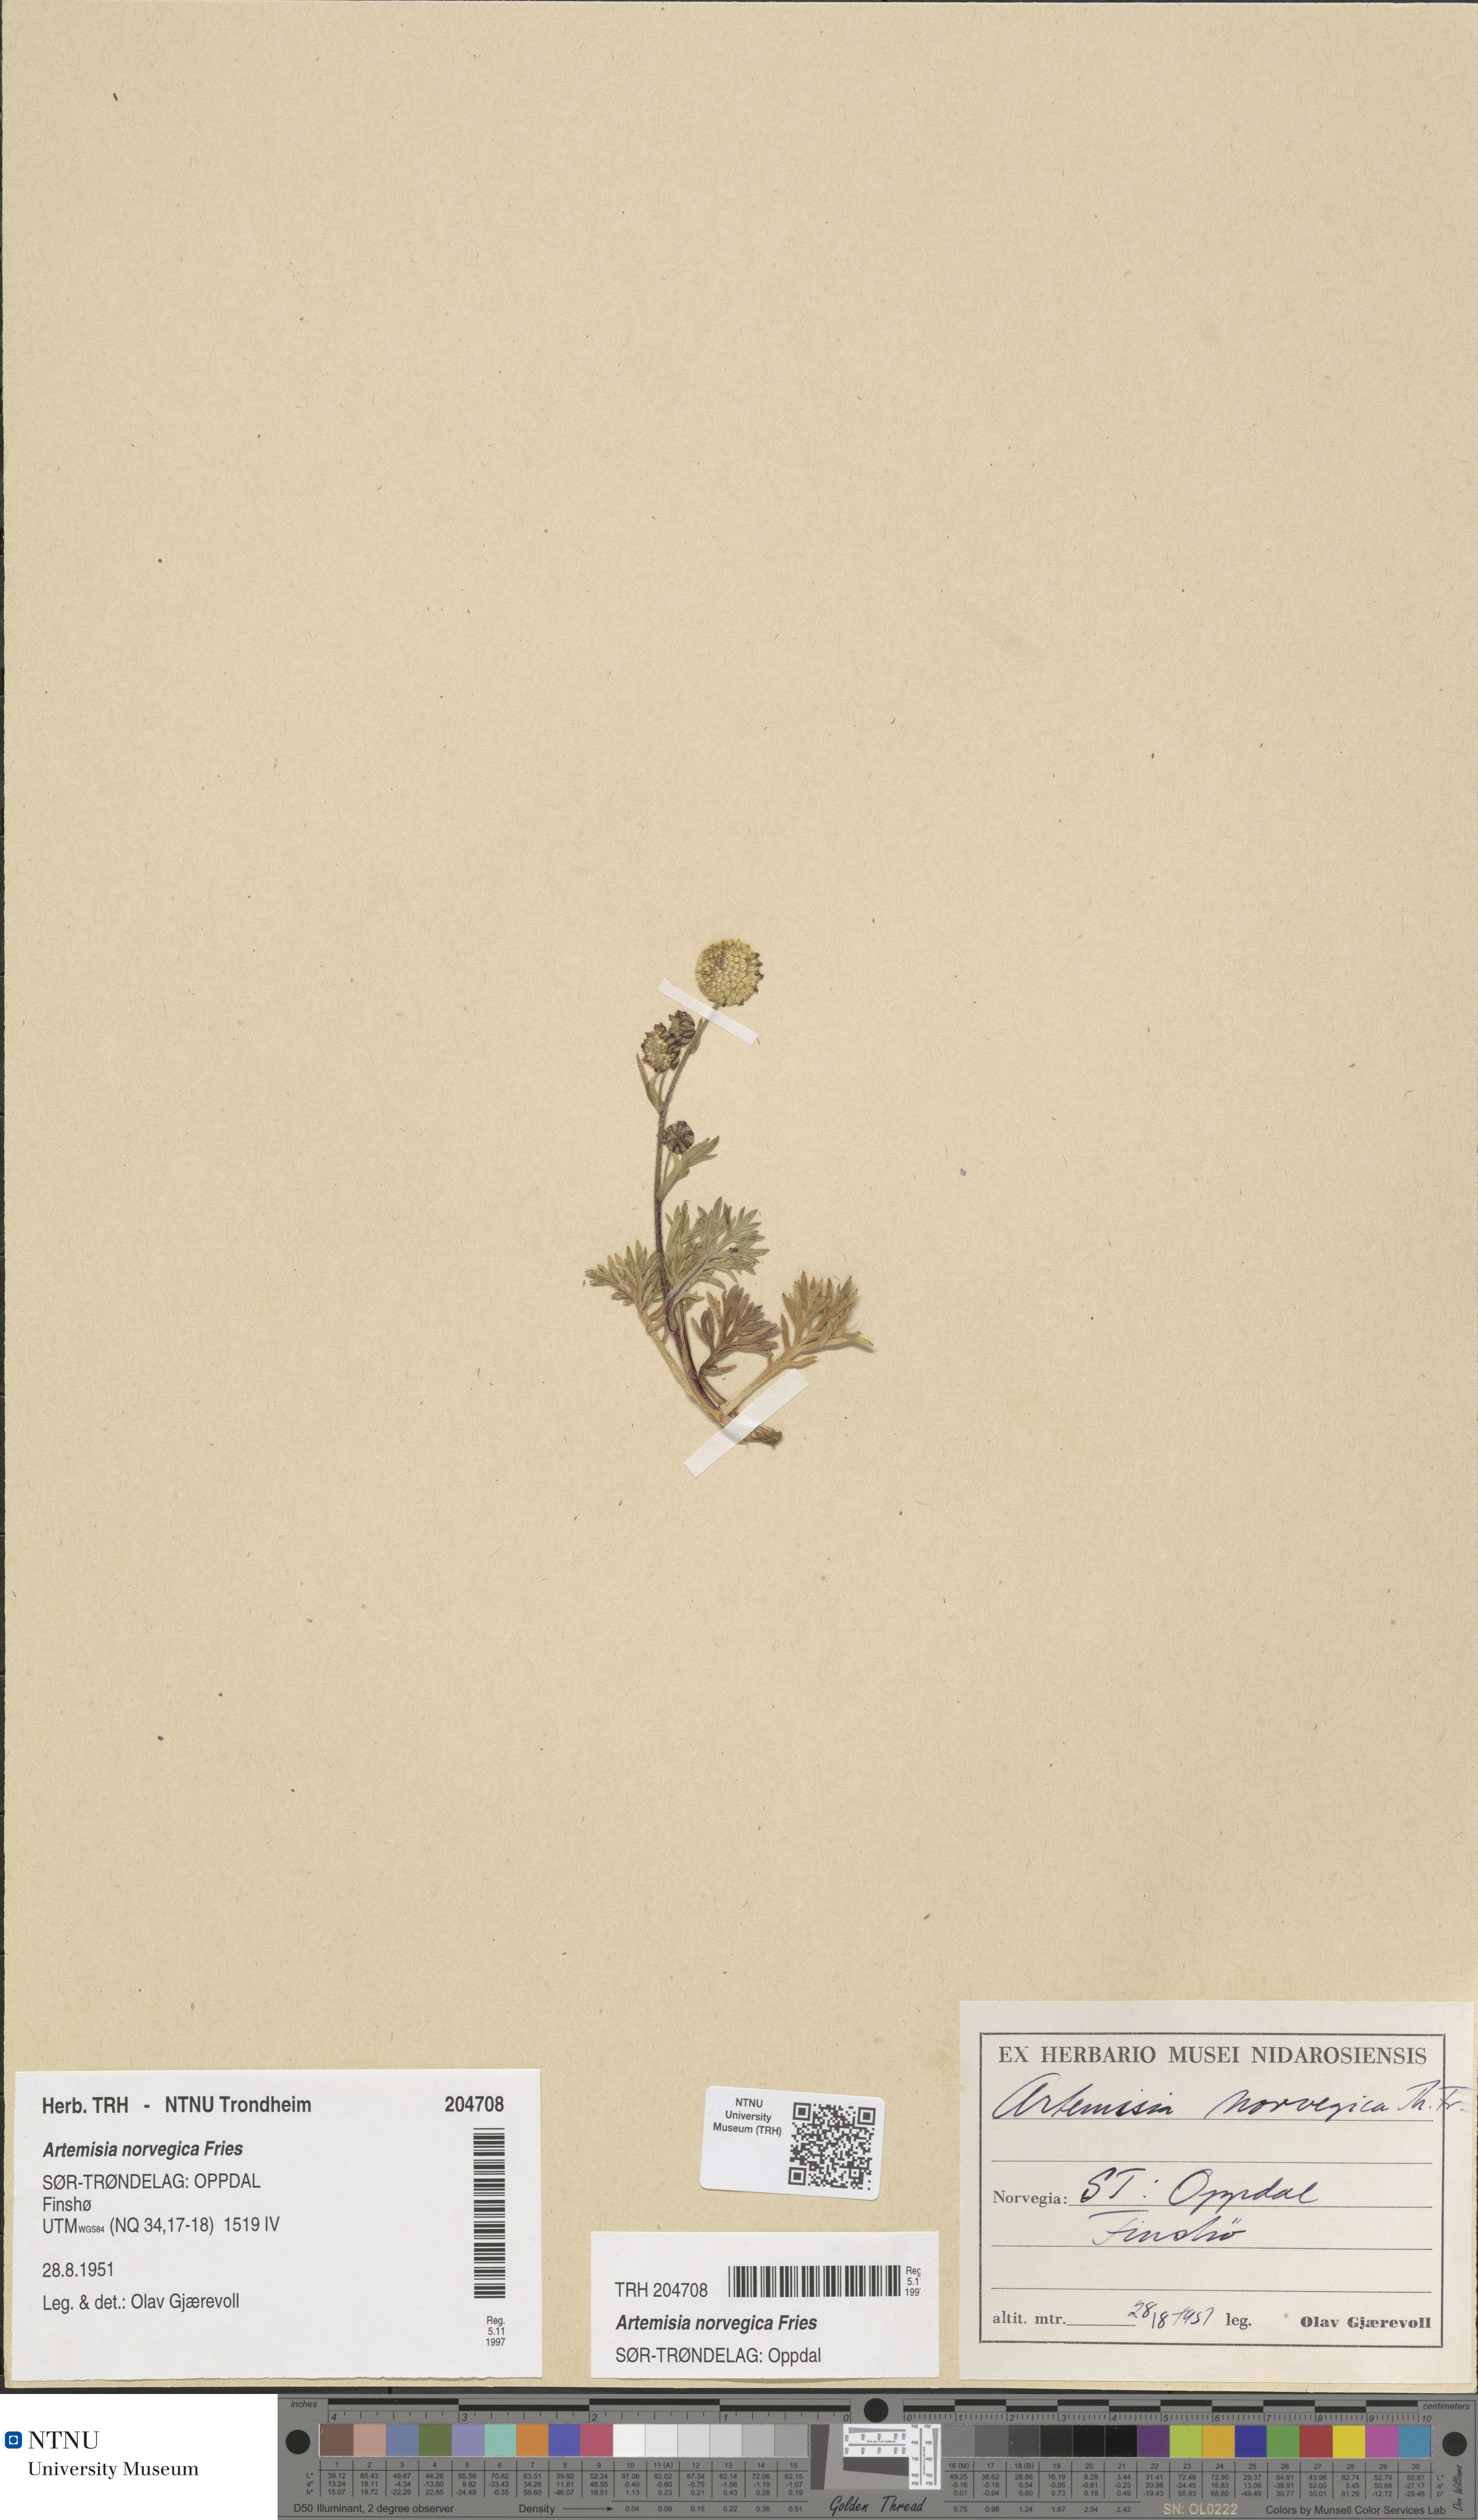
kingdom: Plantae
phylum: Tracheophyta
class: Magnoliopsida
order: Asterales
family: Asteraceae
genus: Artemisia
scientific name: Artemisia norvegica
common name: Norwegian mugwort
